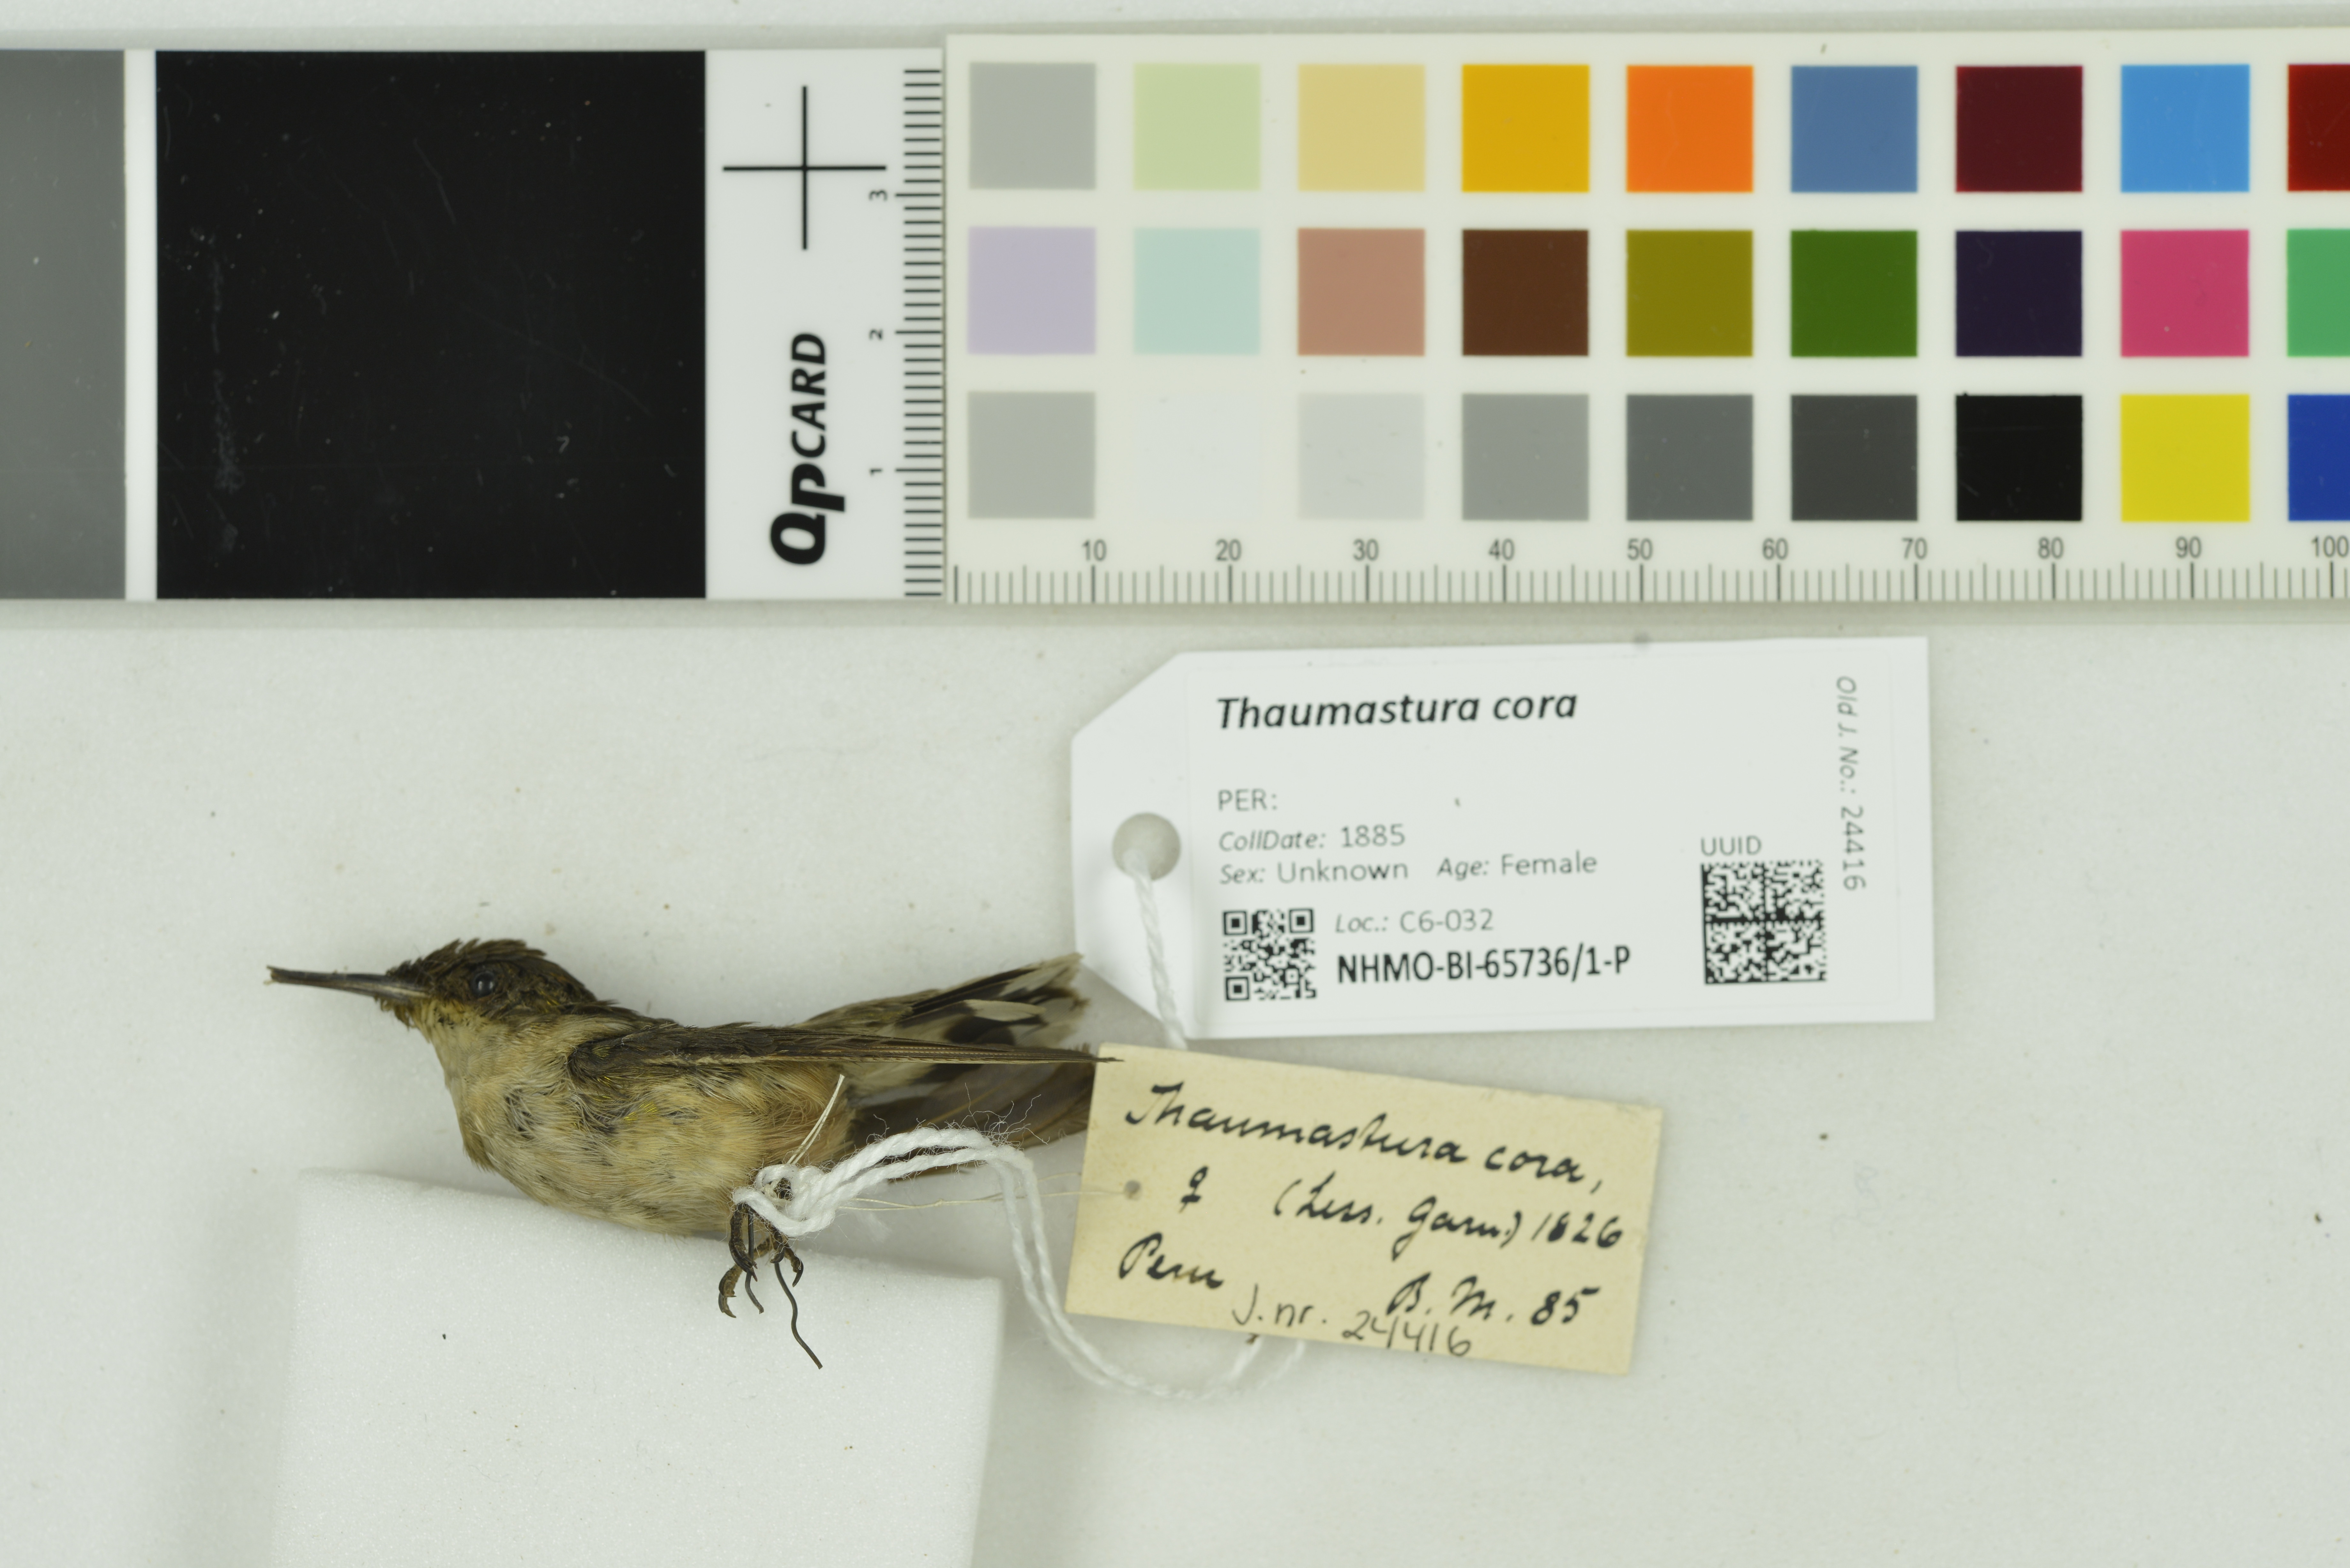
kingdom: Animalia
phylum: Chordata
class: Aves
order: Apodiformes
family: Trochilidae
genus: Thaumastura
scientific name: Thaumastura cora
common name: Peruvian sheartail
